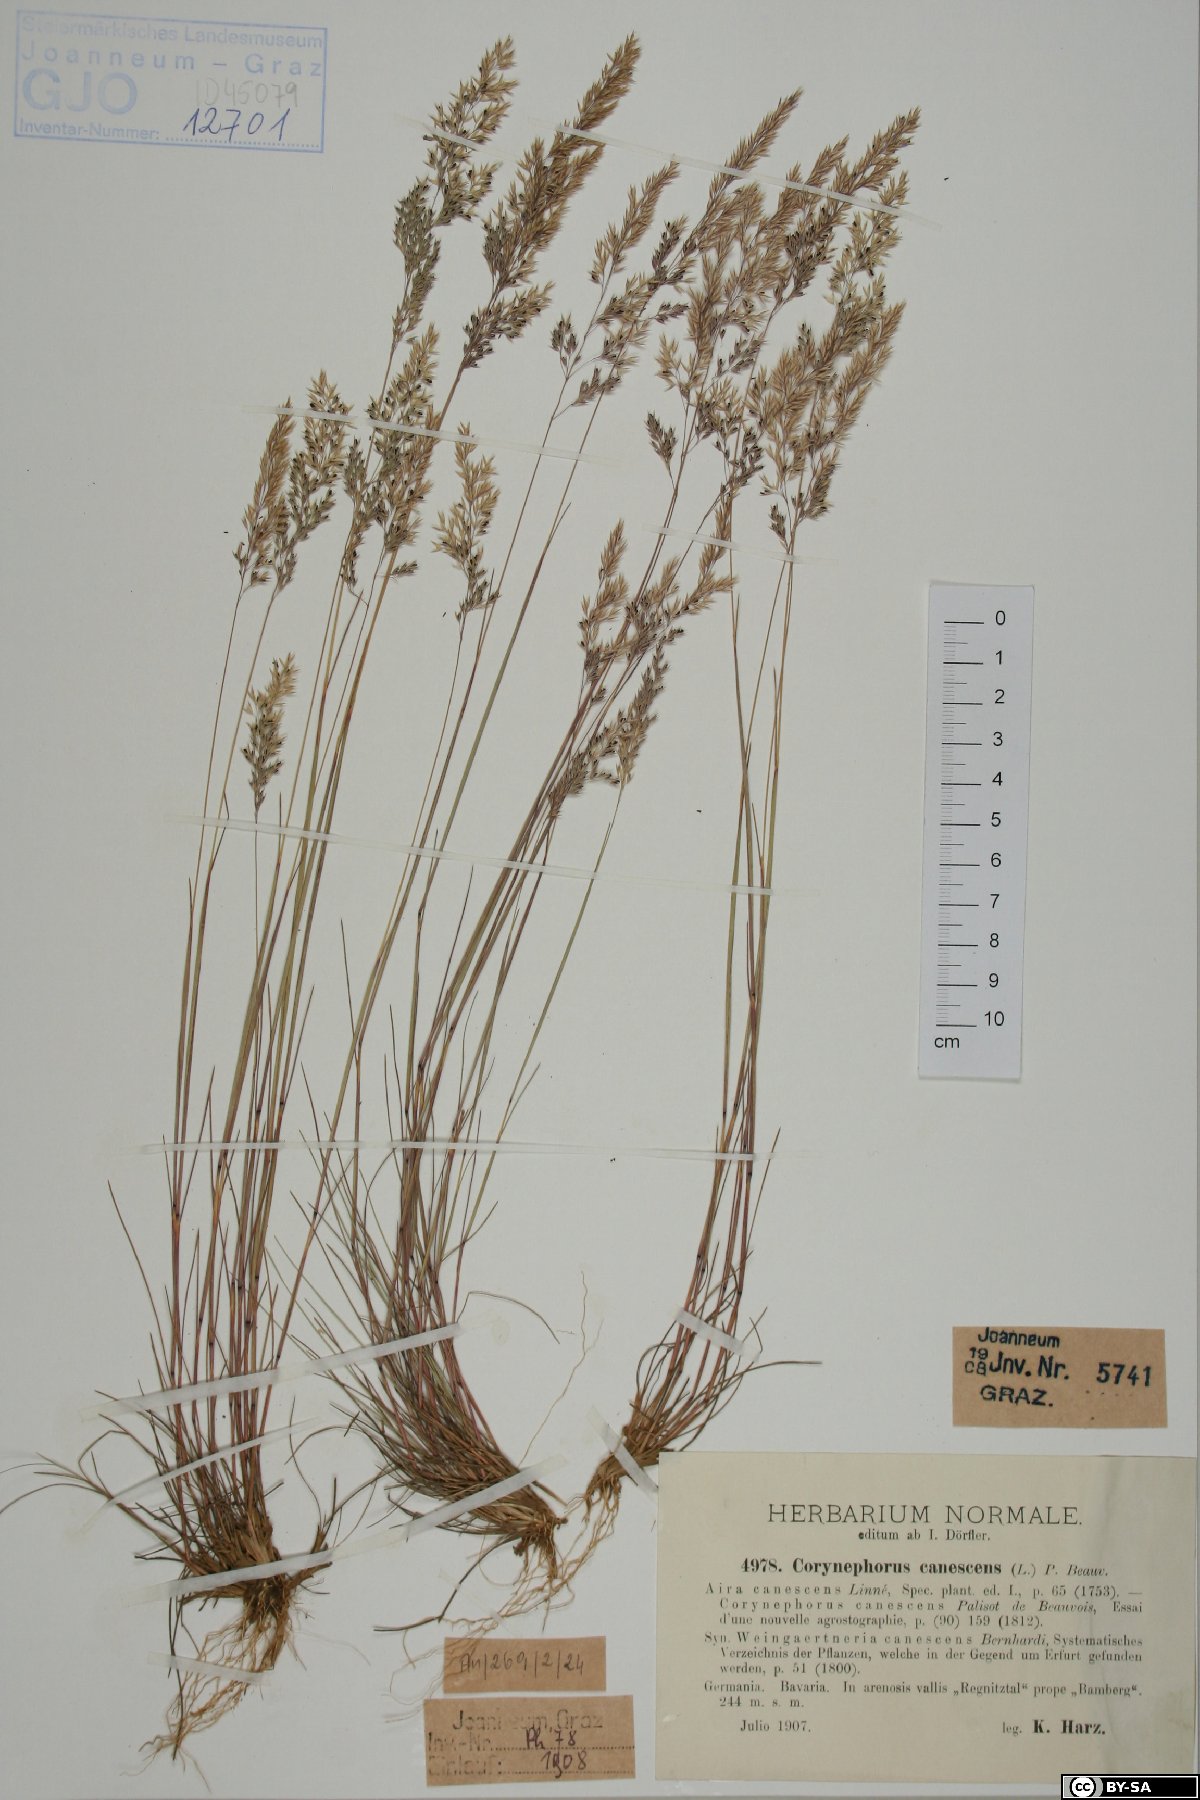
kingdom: Plantae
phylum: Tracheophyta
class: Liliopsida
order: Poales
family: Poaceae
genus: Corynephorus
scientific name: Corynephorus canescens
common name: Grey hair-grass
